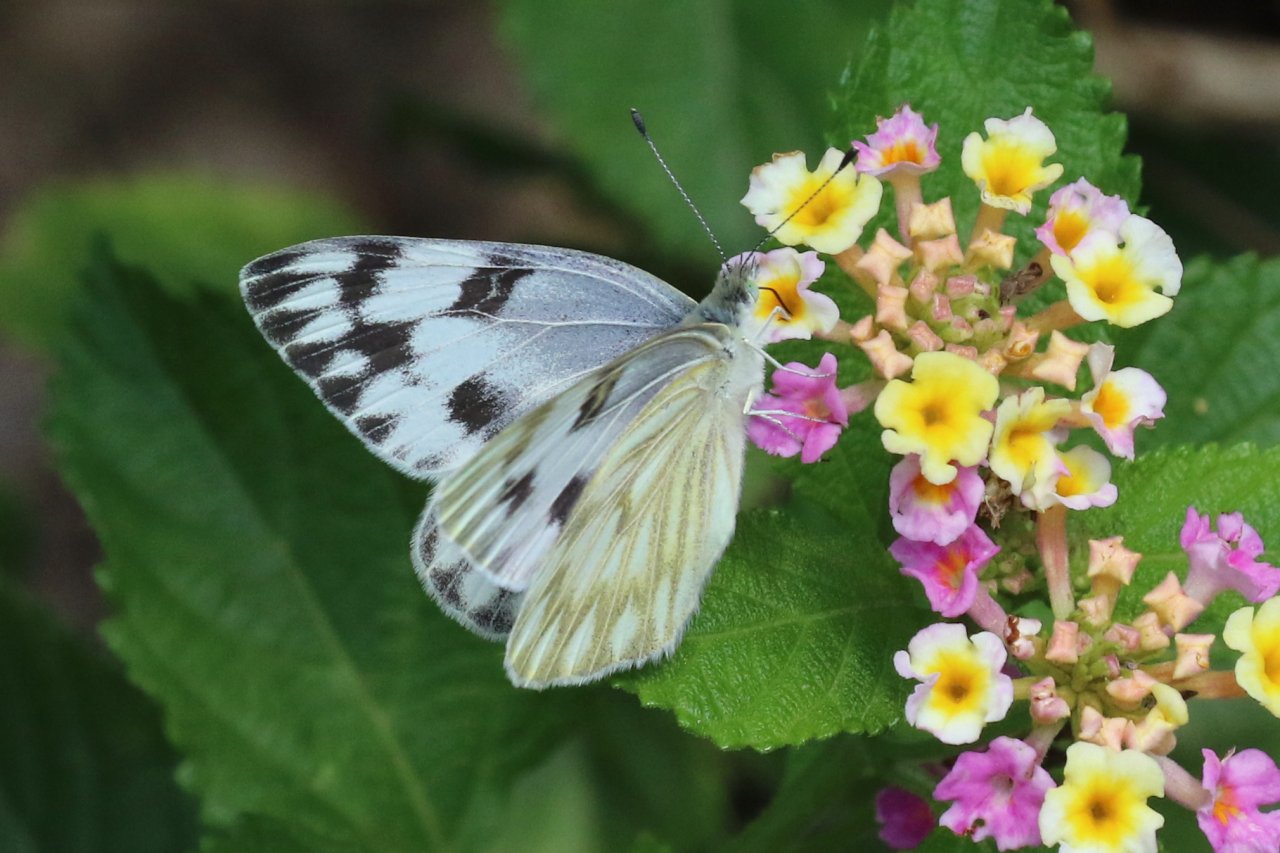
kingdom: Animalia
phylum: Arthropoda
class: Insecta
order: Lepidoptera
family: Pieridae
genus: Pontia
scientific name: Pontia protodice
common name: Checkered White
